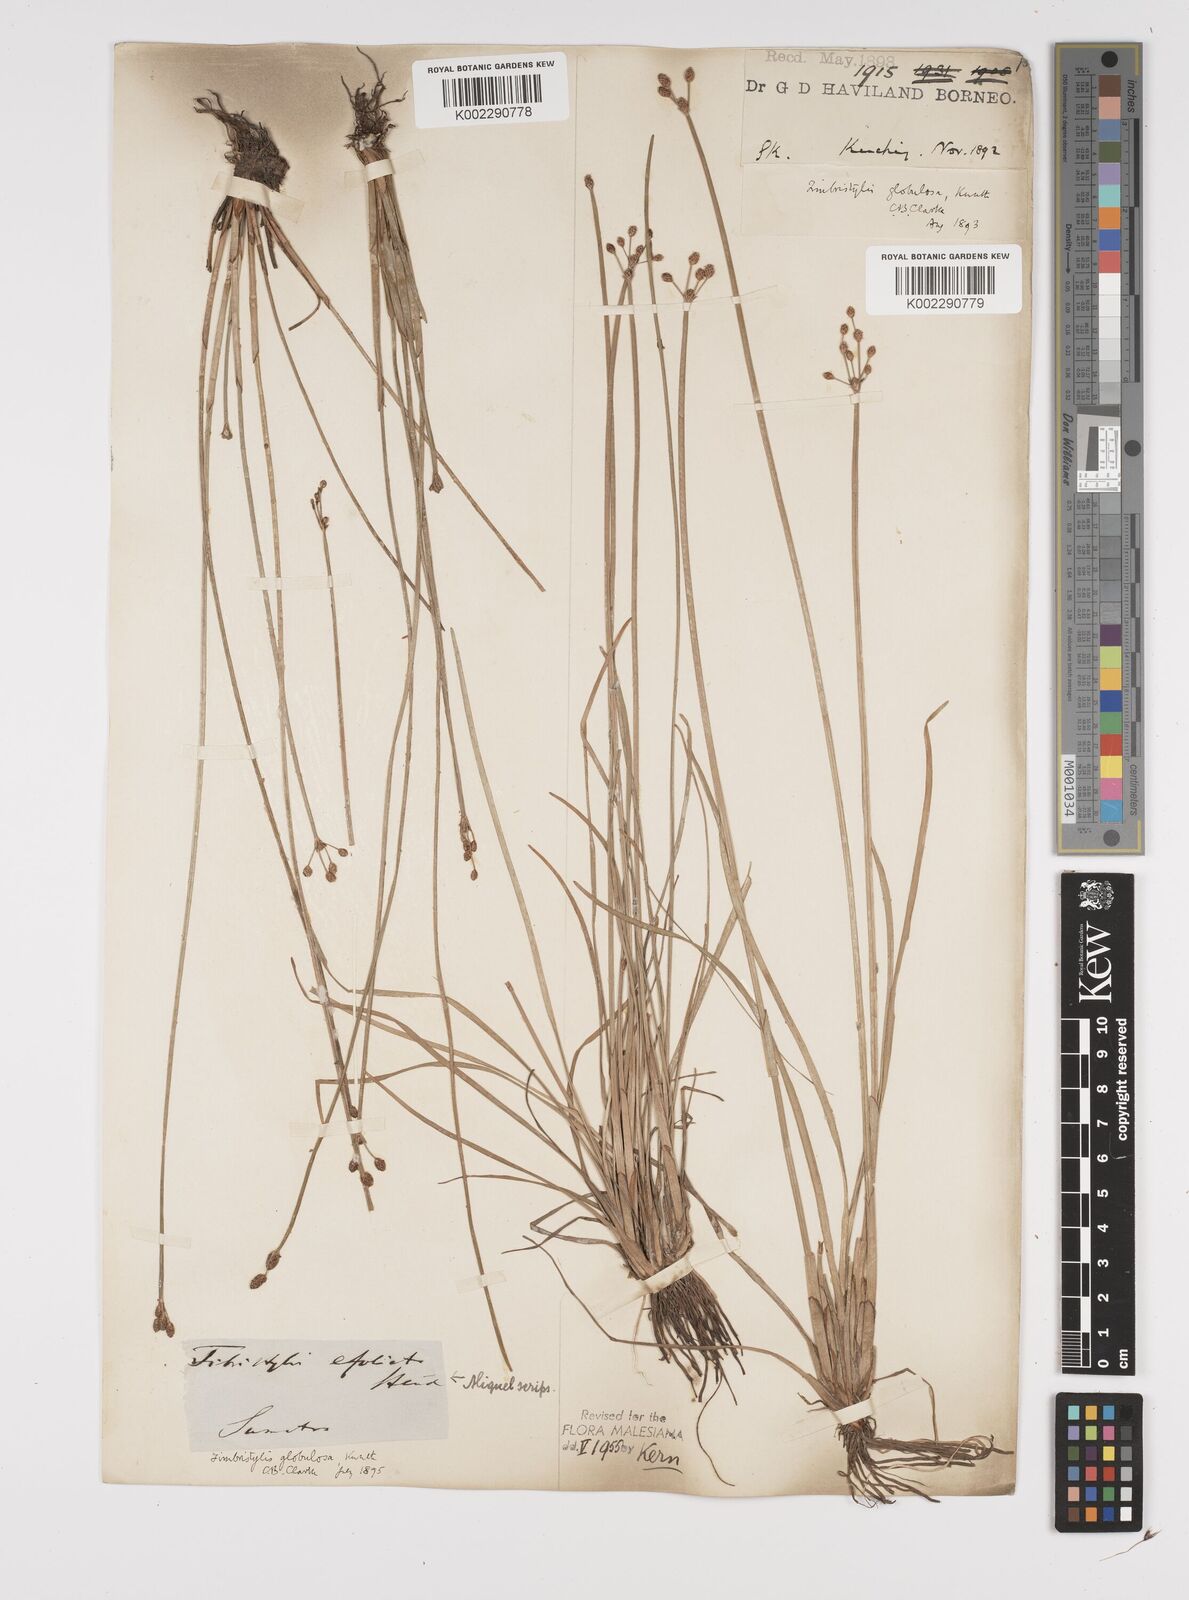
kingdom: Plantae
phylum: Tracheophyta
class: Liliopsida
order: Poales
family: Cyperaceae
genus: Fimbristylis
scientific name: Fimbristylis umbellaris
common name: Globular fimbristylis
